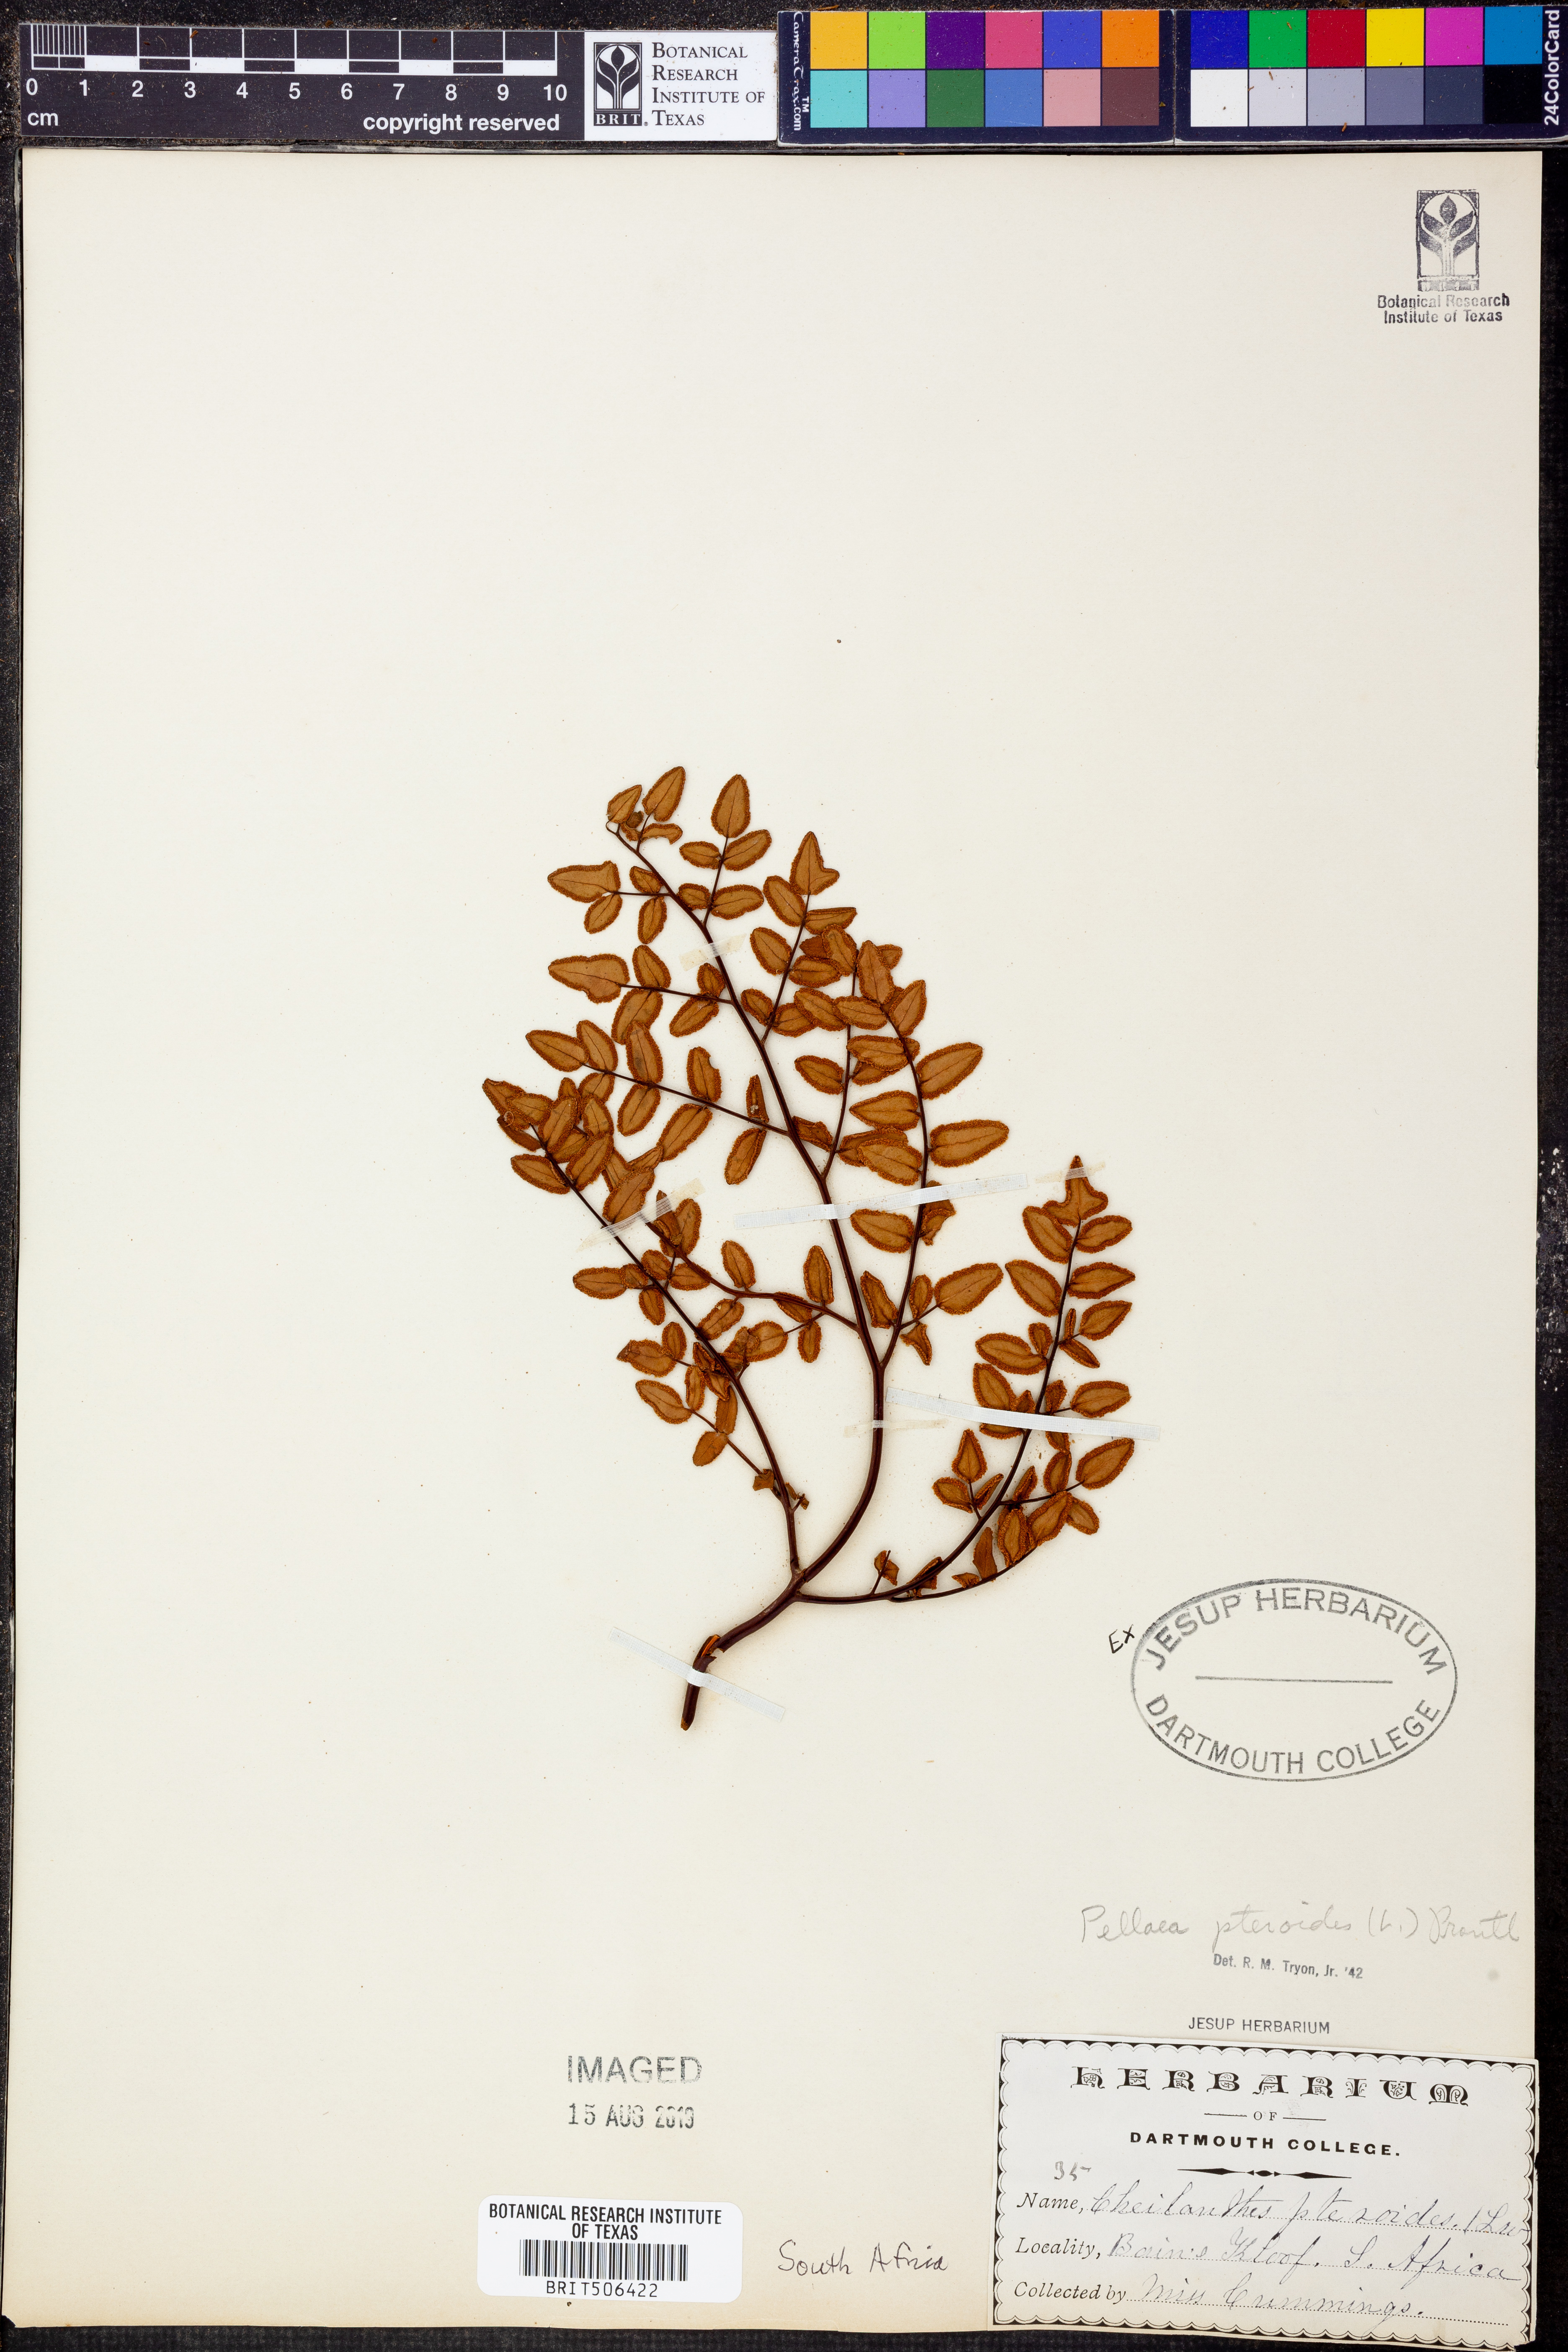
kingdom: Plantae
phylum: Tracheophyta
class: Polypodiopsida
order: Polypodiales
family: Pteridaceae
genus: Pellaea
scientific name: Pellaea pteroides
